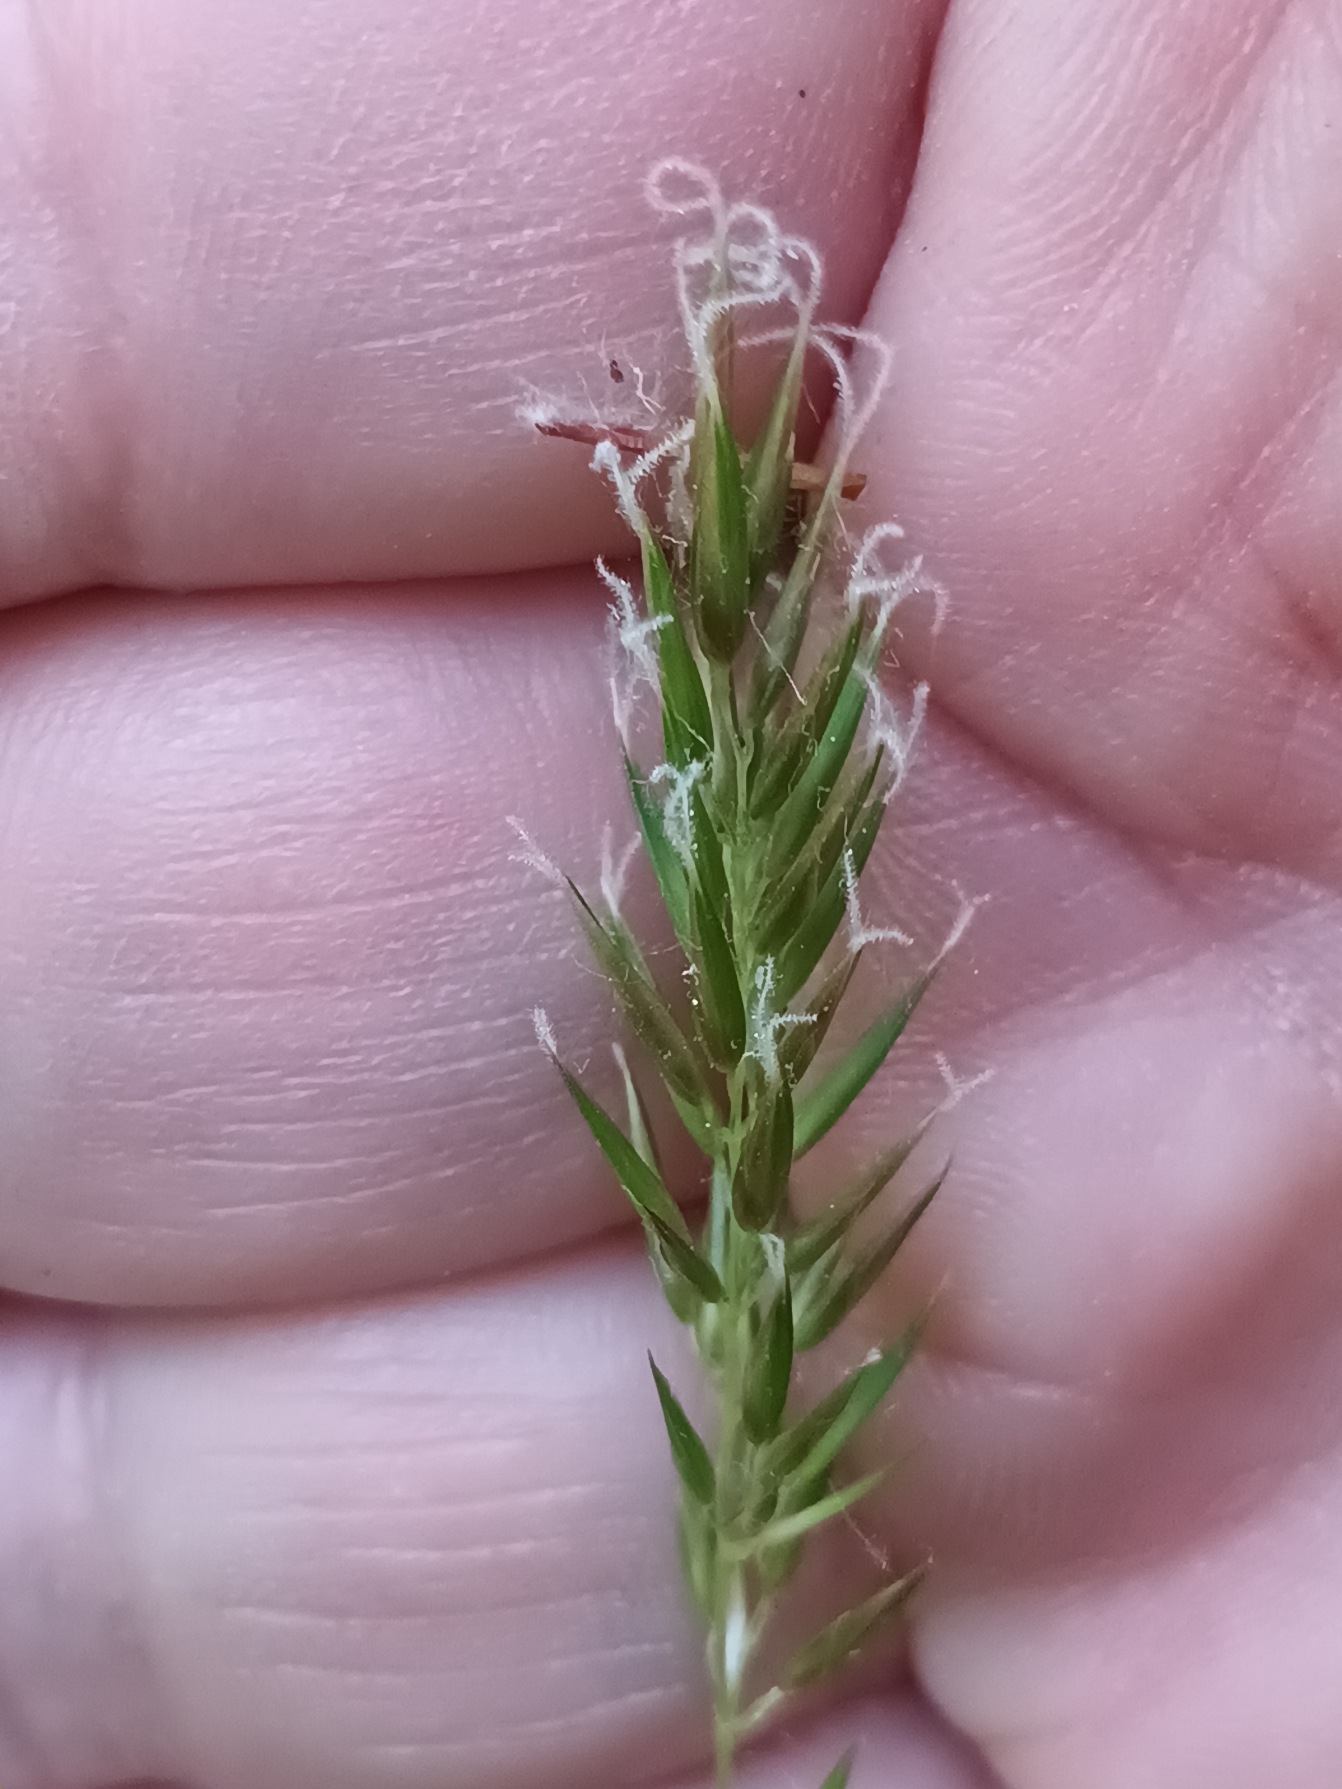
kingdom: Plantae
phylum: Tracheophyta
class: Liliopsida
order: Poales
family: Poaceae
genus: Anthoxanthum
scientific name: Anthoxanthum odoratum
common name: Vellugtende gulaks
